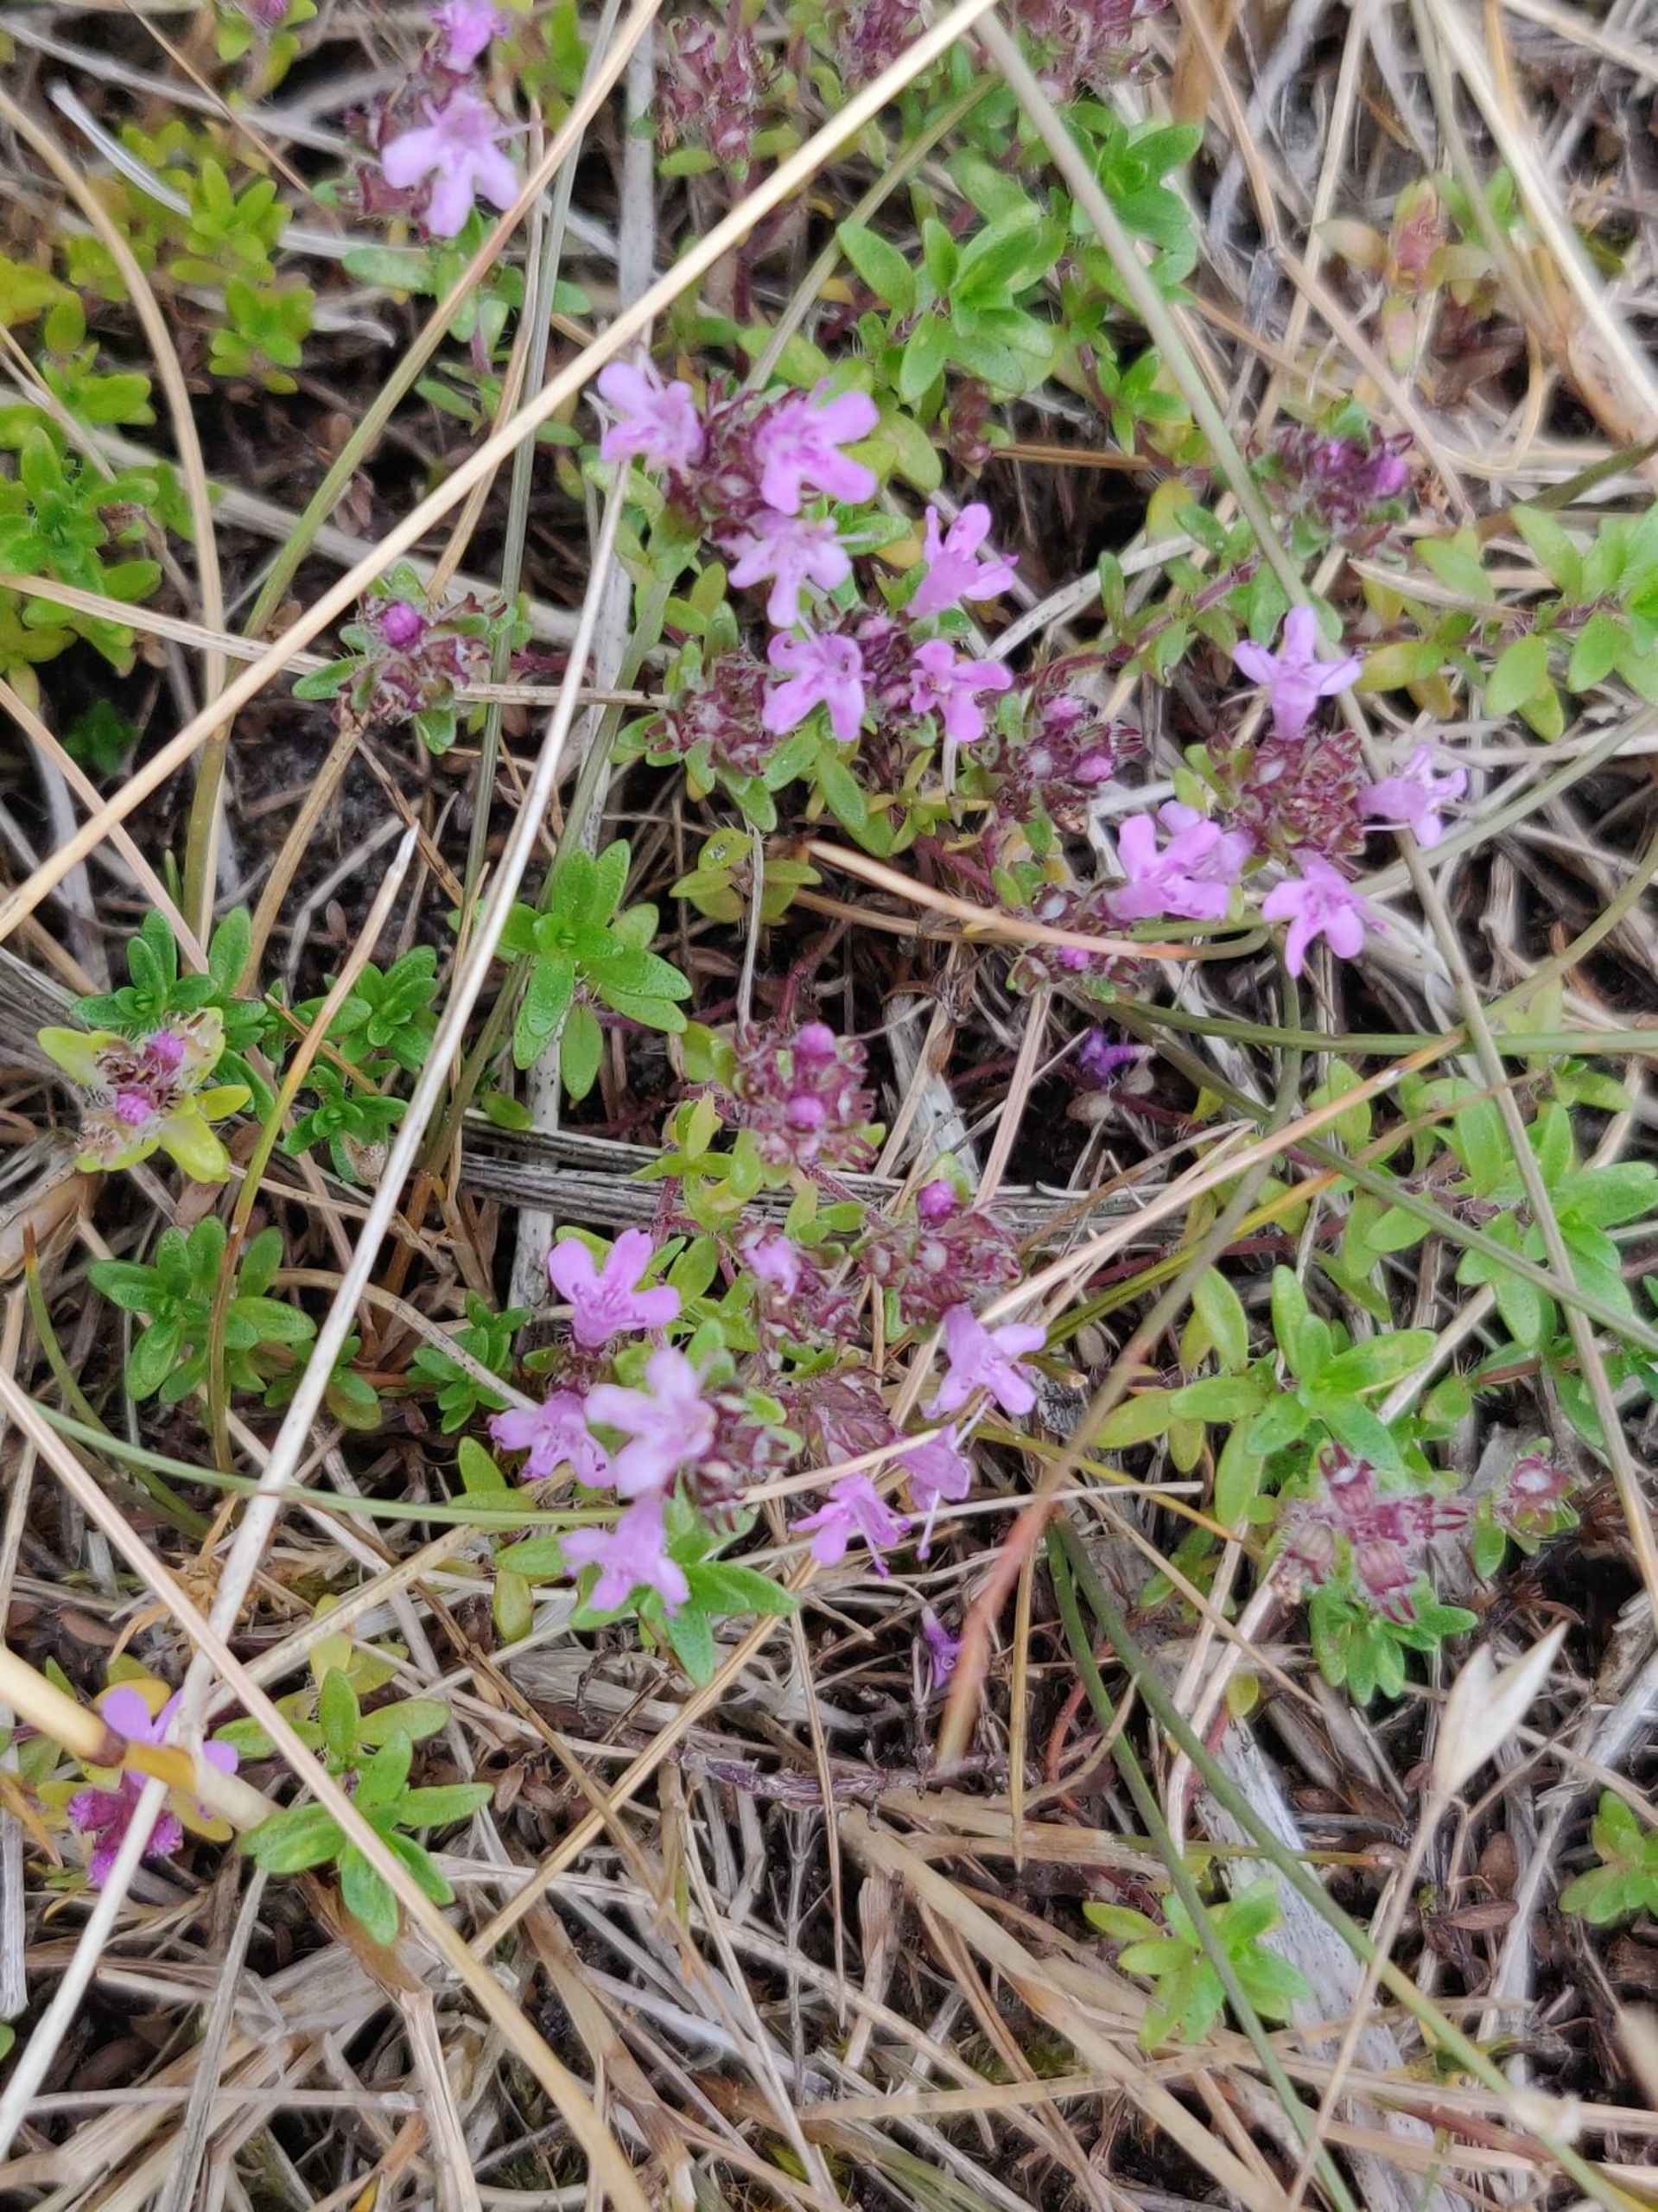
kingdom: Plantae
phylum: Tracheophyta
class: Magnoliopsida
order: Lamiales
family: Lamiaceae
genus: Thymus
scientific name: Thymus serpyllum
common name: Smalbladet timian
